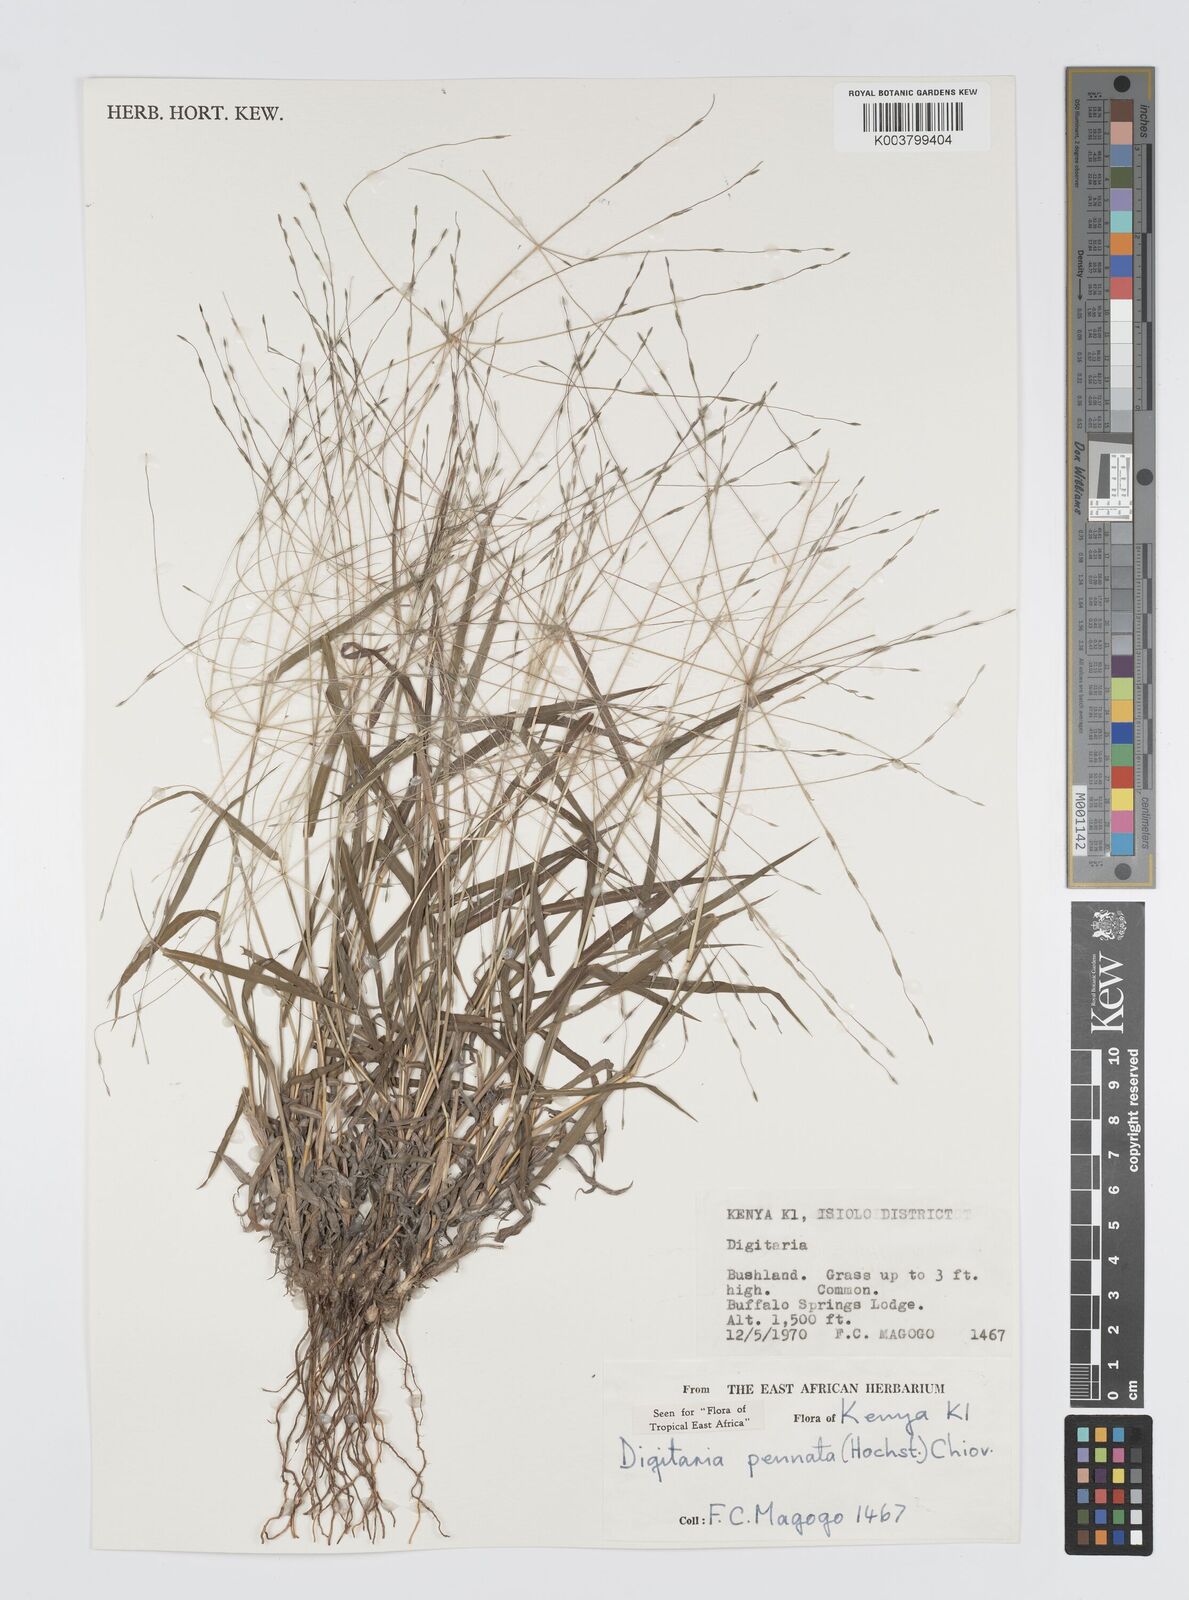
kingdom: Plantae
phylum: Tracheophyta
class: Liliopsida
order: Poales
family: Poaceae
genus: Digitaria
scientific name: Digitaria pennata
